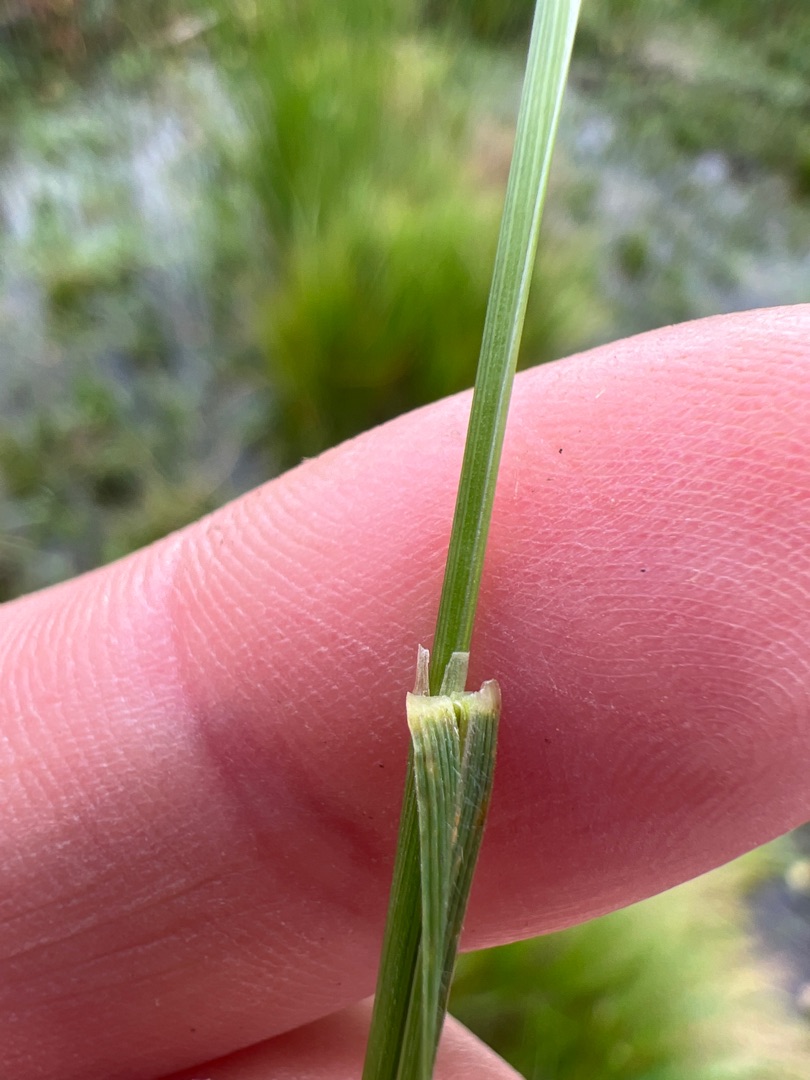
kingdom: Plantae
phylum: Tracheophyta
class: Liliopsida
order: Poales
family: Poaceae
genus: Calamagrostis
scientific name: Calamagrostis canescens
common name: Eng-rørhvene
